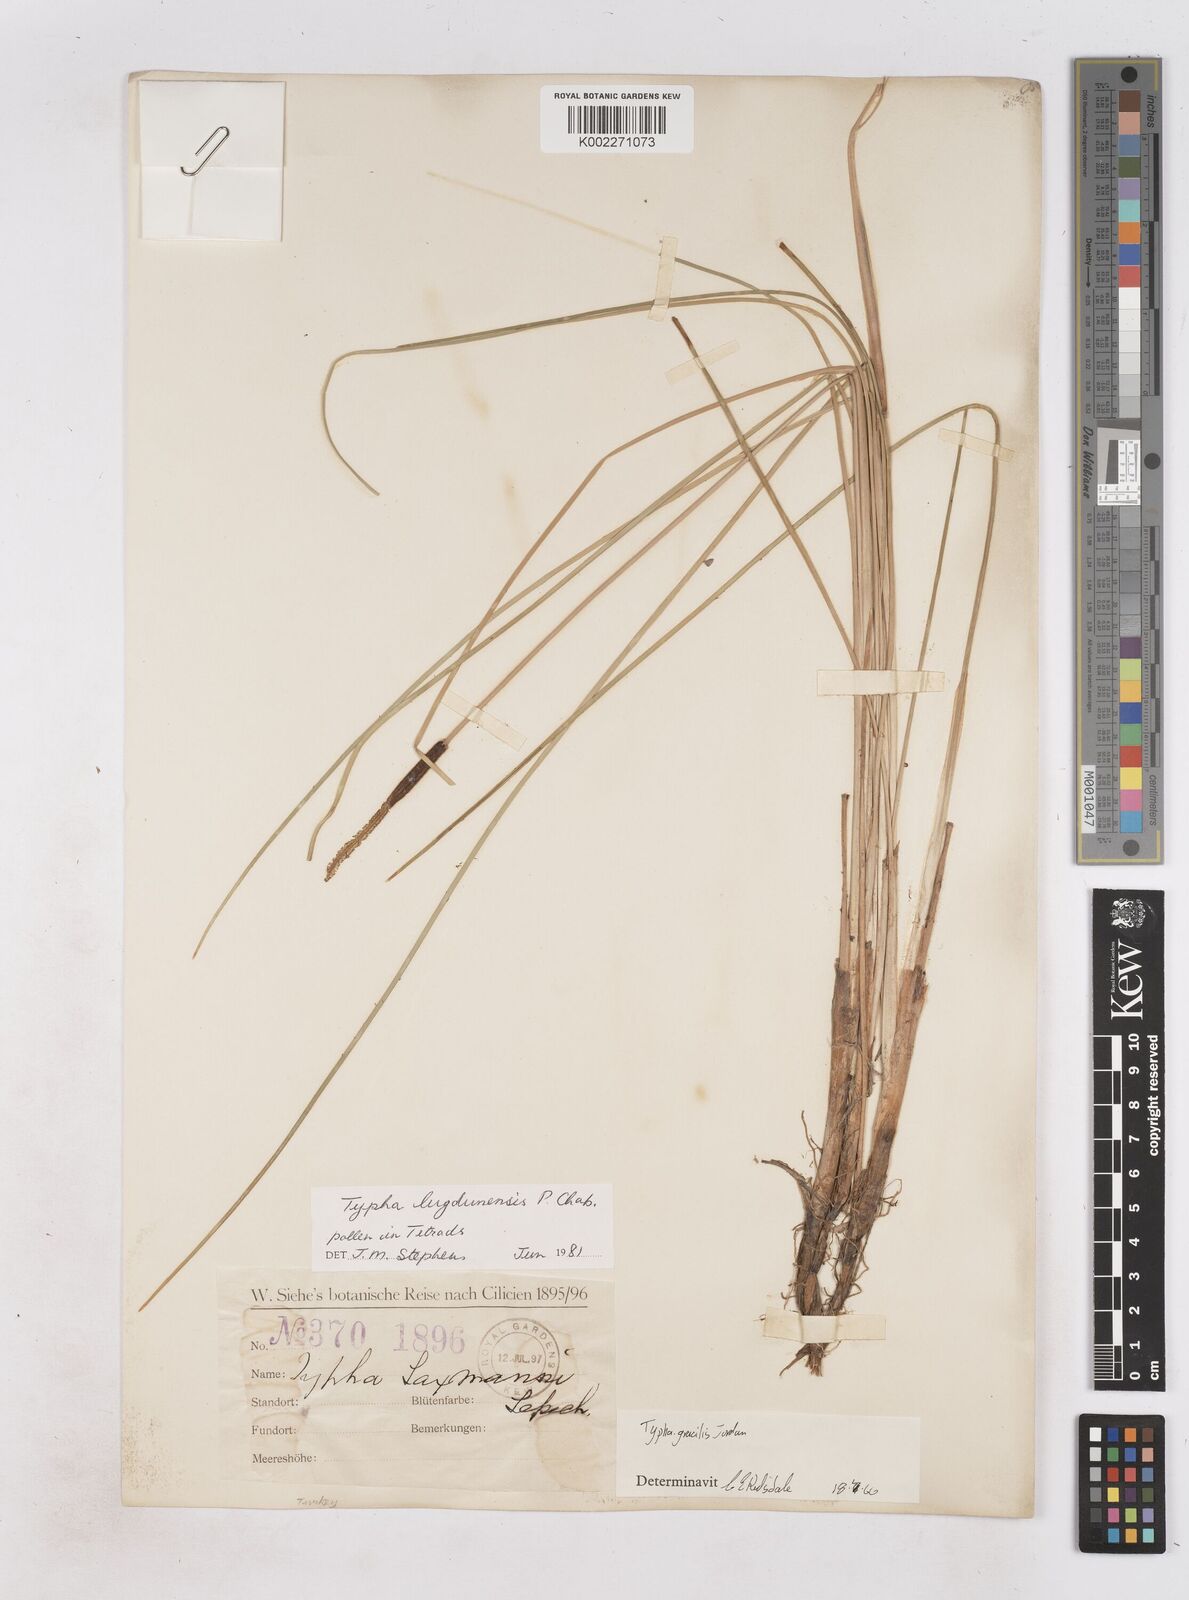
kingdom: Plantae
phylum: Tracheophyta
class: Liliopsida
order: Poales
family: Typhaceae
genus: Typha
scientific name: Typha lugdunensis
